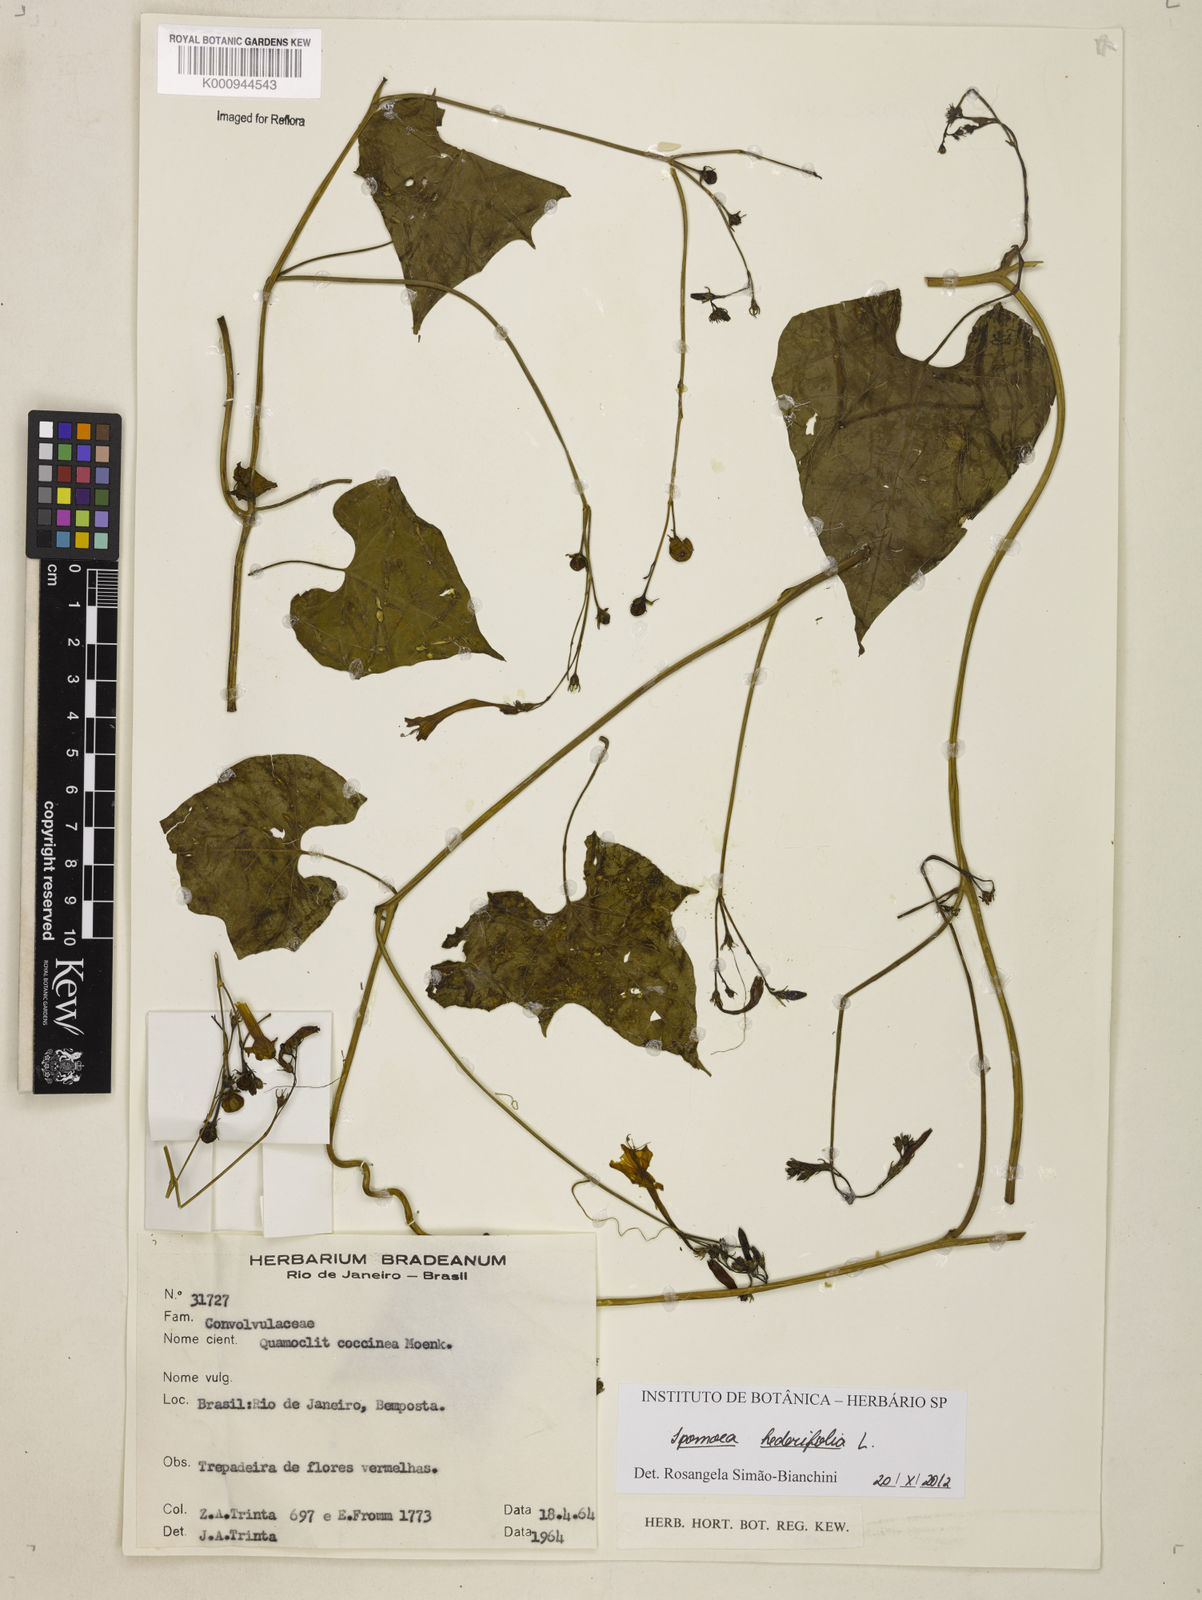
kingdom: Plantae
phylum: Tracheophyta
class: Magnoliopsida
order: Solanales
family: Convolvulaceae
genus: Ipomoea
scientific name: Ipomoea hederifolia
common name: Ivy-leaf morning-glory
